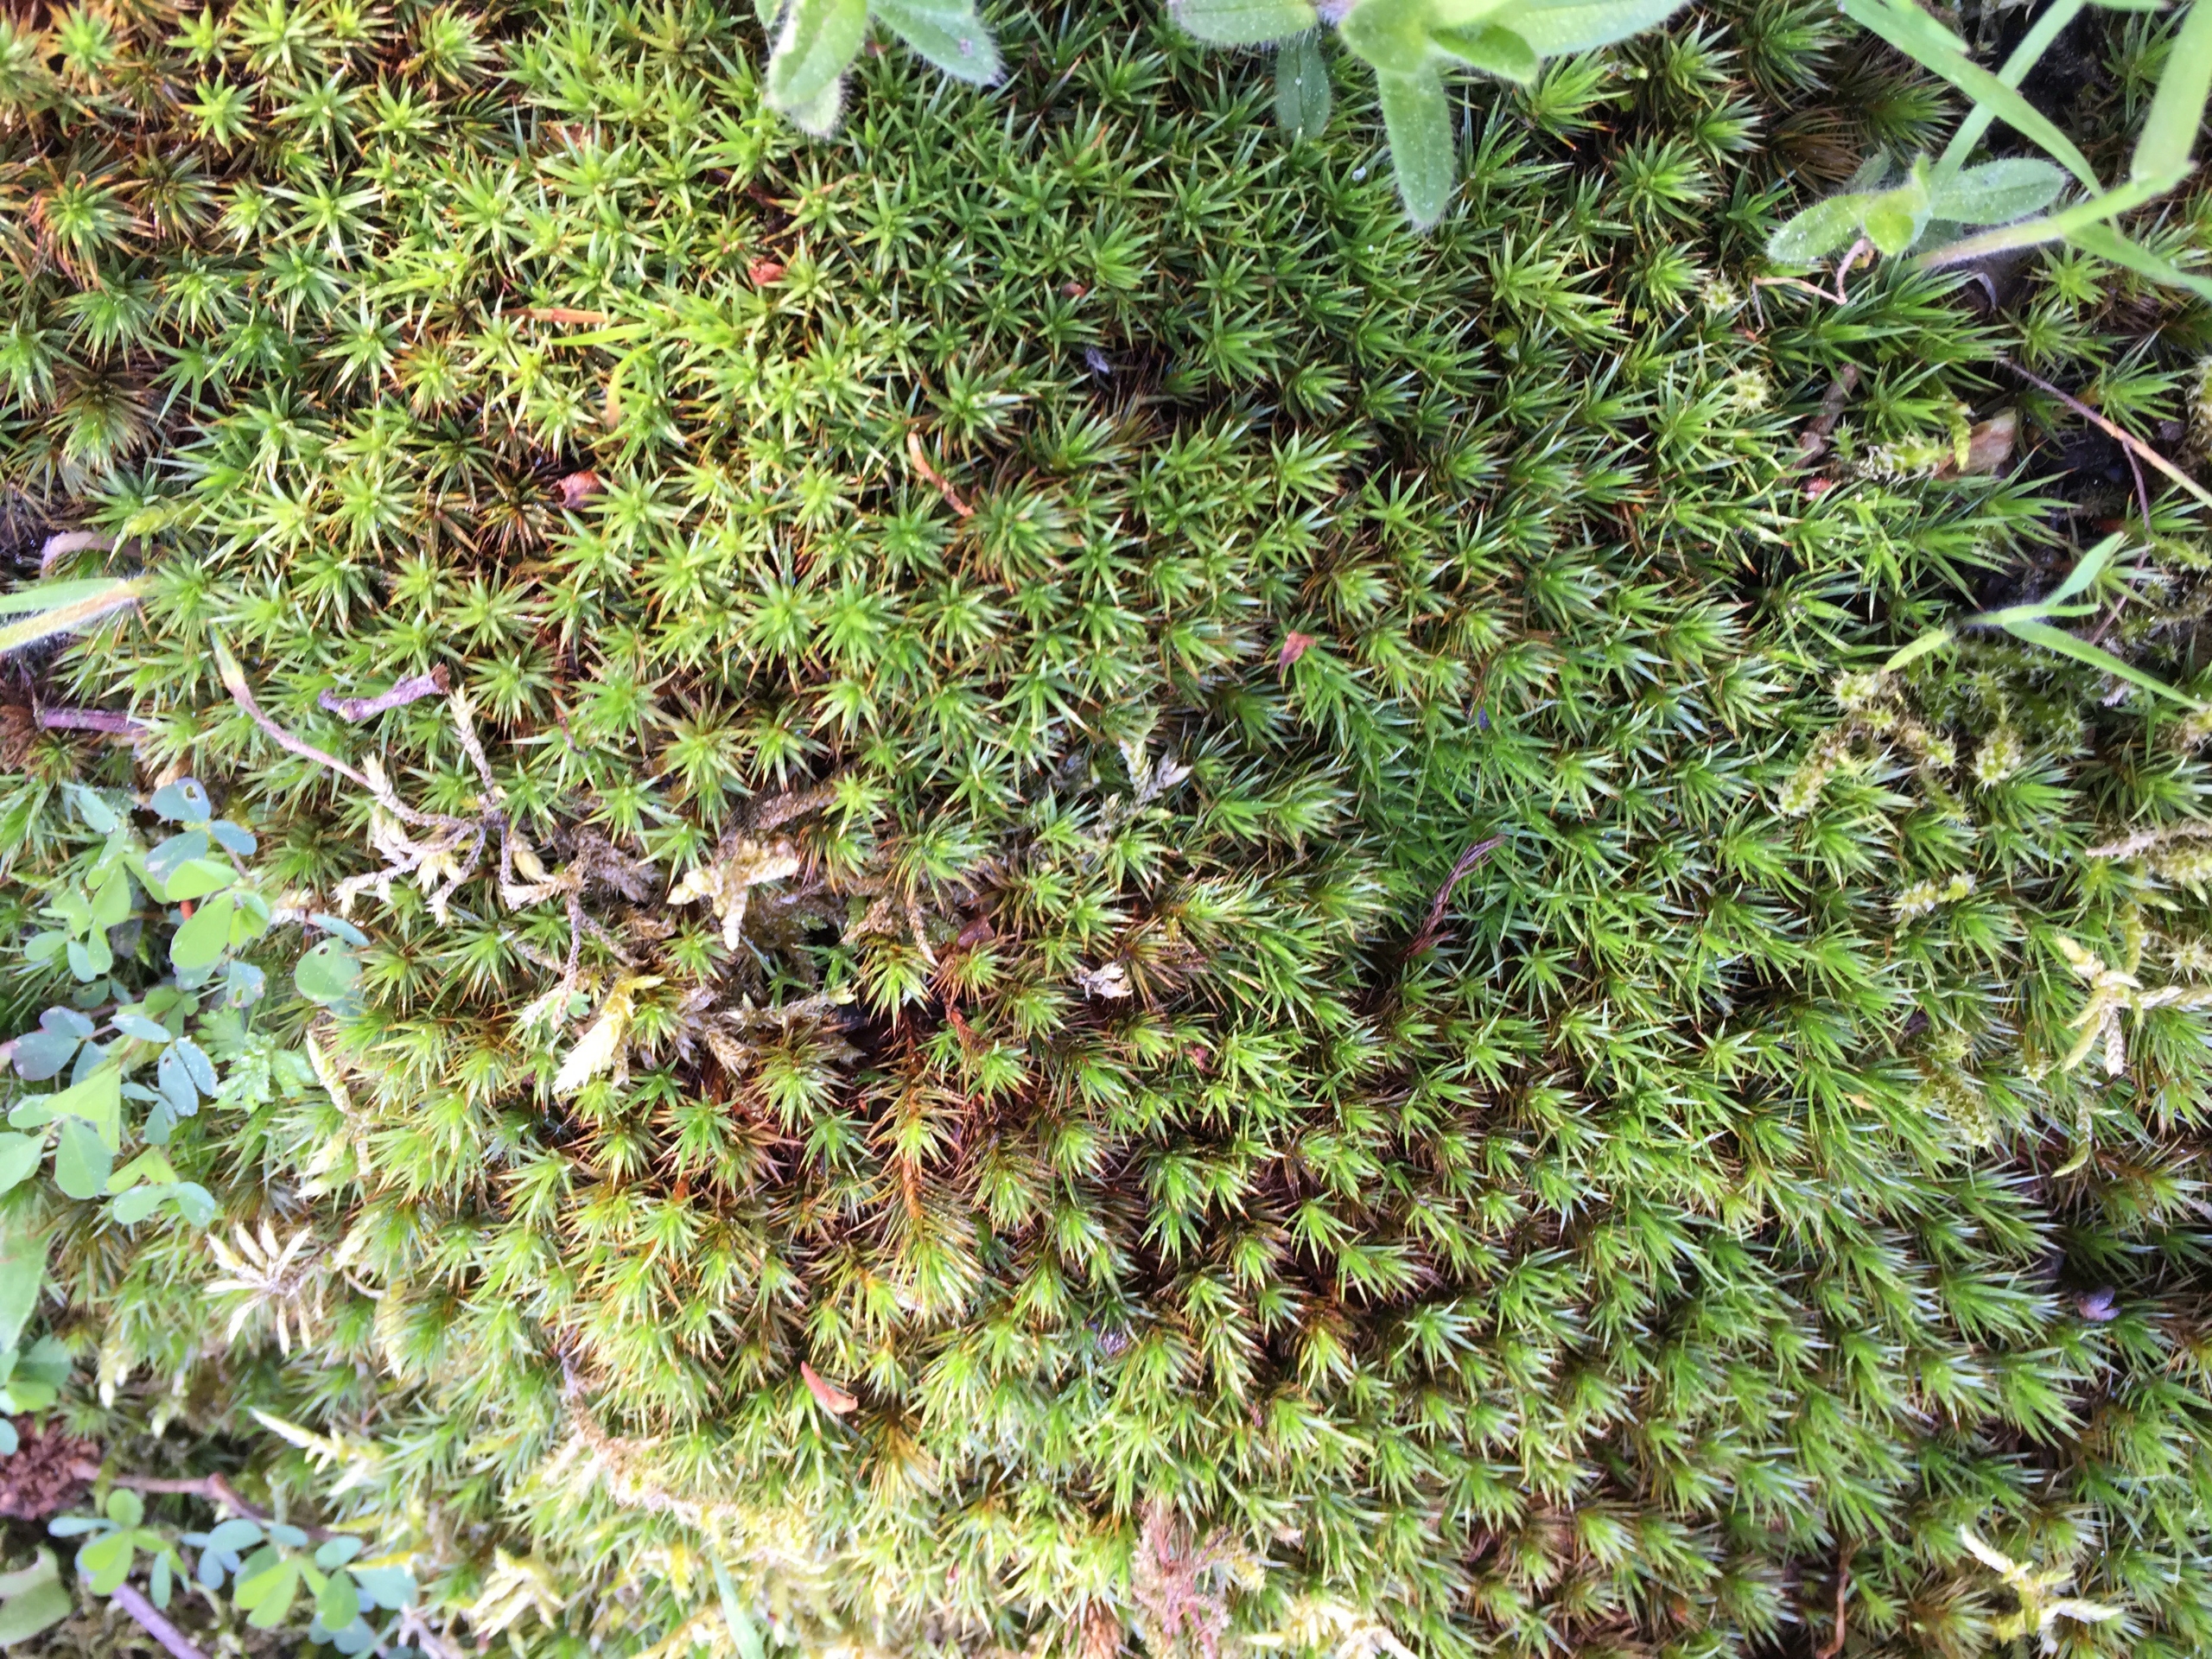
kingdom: Plantae
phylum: Bryophyta
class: Polytrichopsida
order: Polytrichales
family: Polytrichaceae
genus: Polytrichum
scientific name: Polytrichum juniperinum
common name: Ene-jomfruhår
